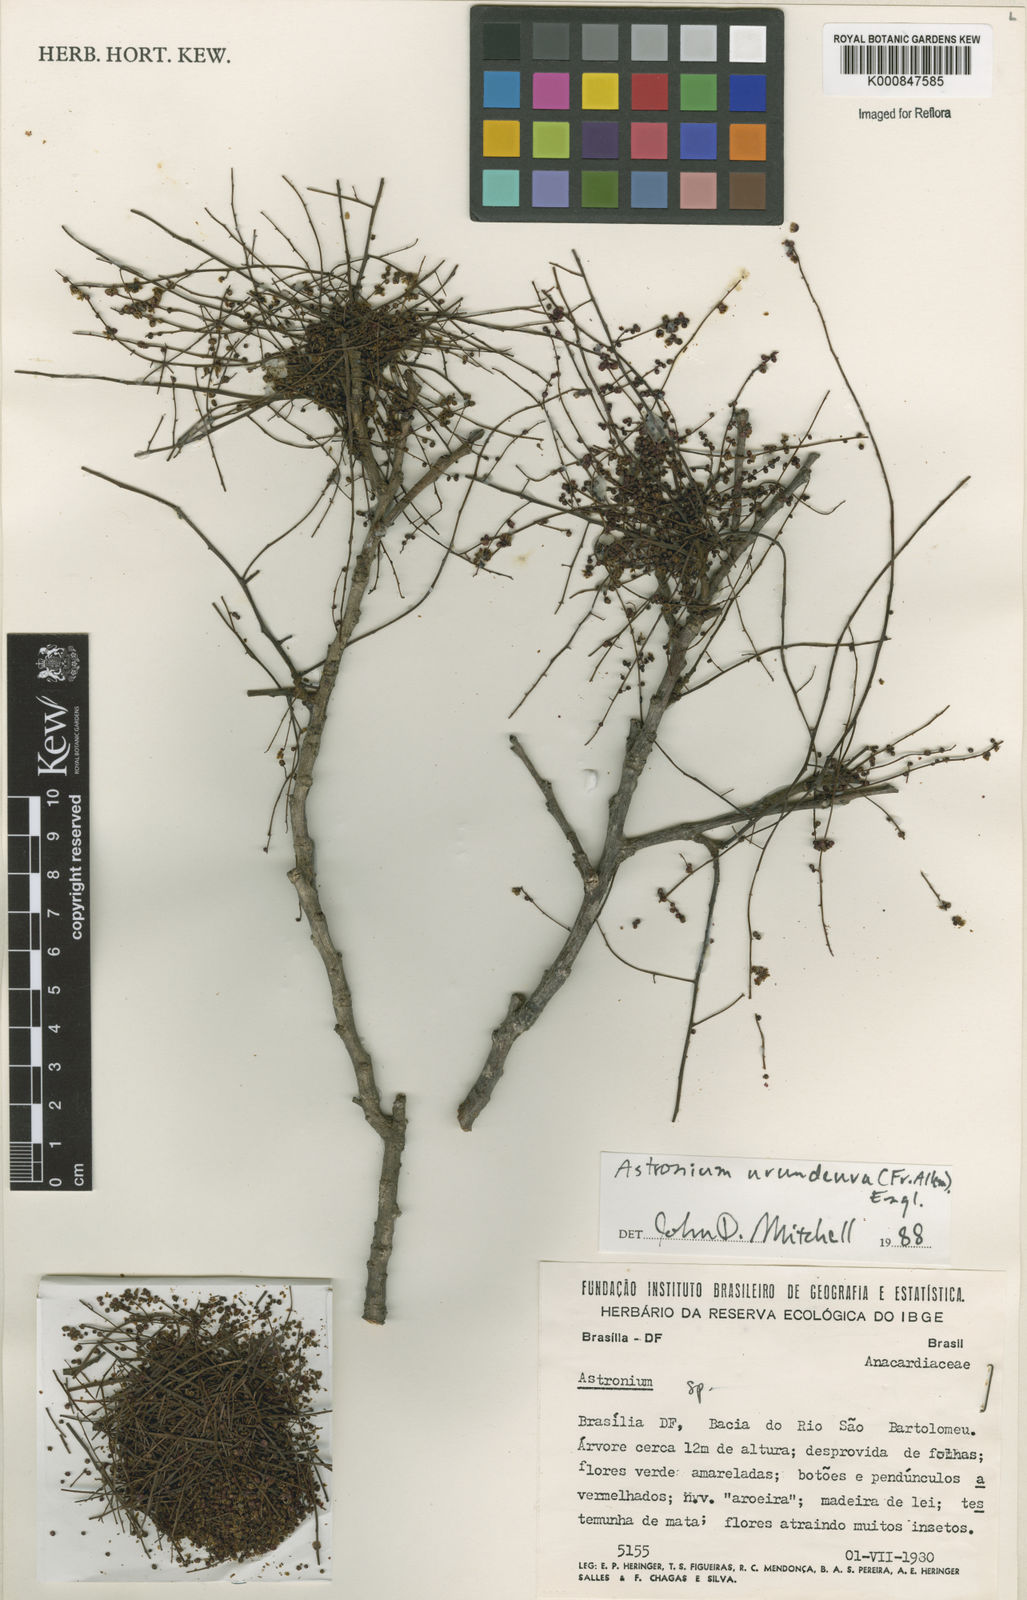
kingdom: Plantae
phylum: Tracheophyta
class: Magnoliopsida
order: Sapindales
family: Anacardiaceae
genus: Astronium
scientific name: Astronium
